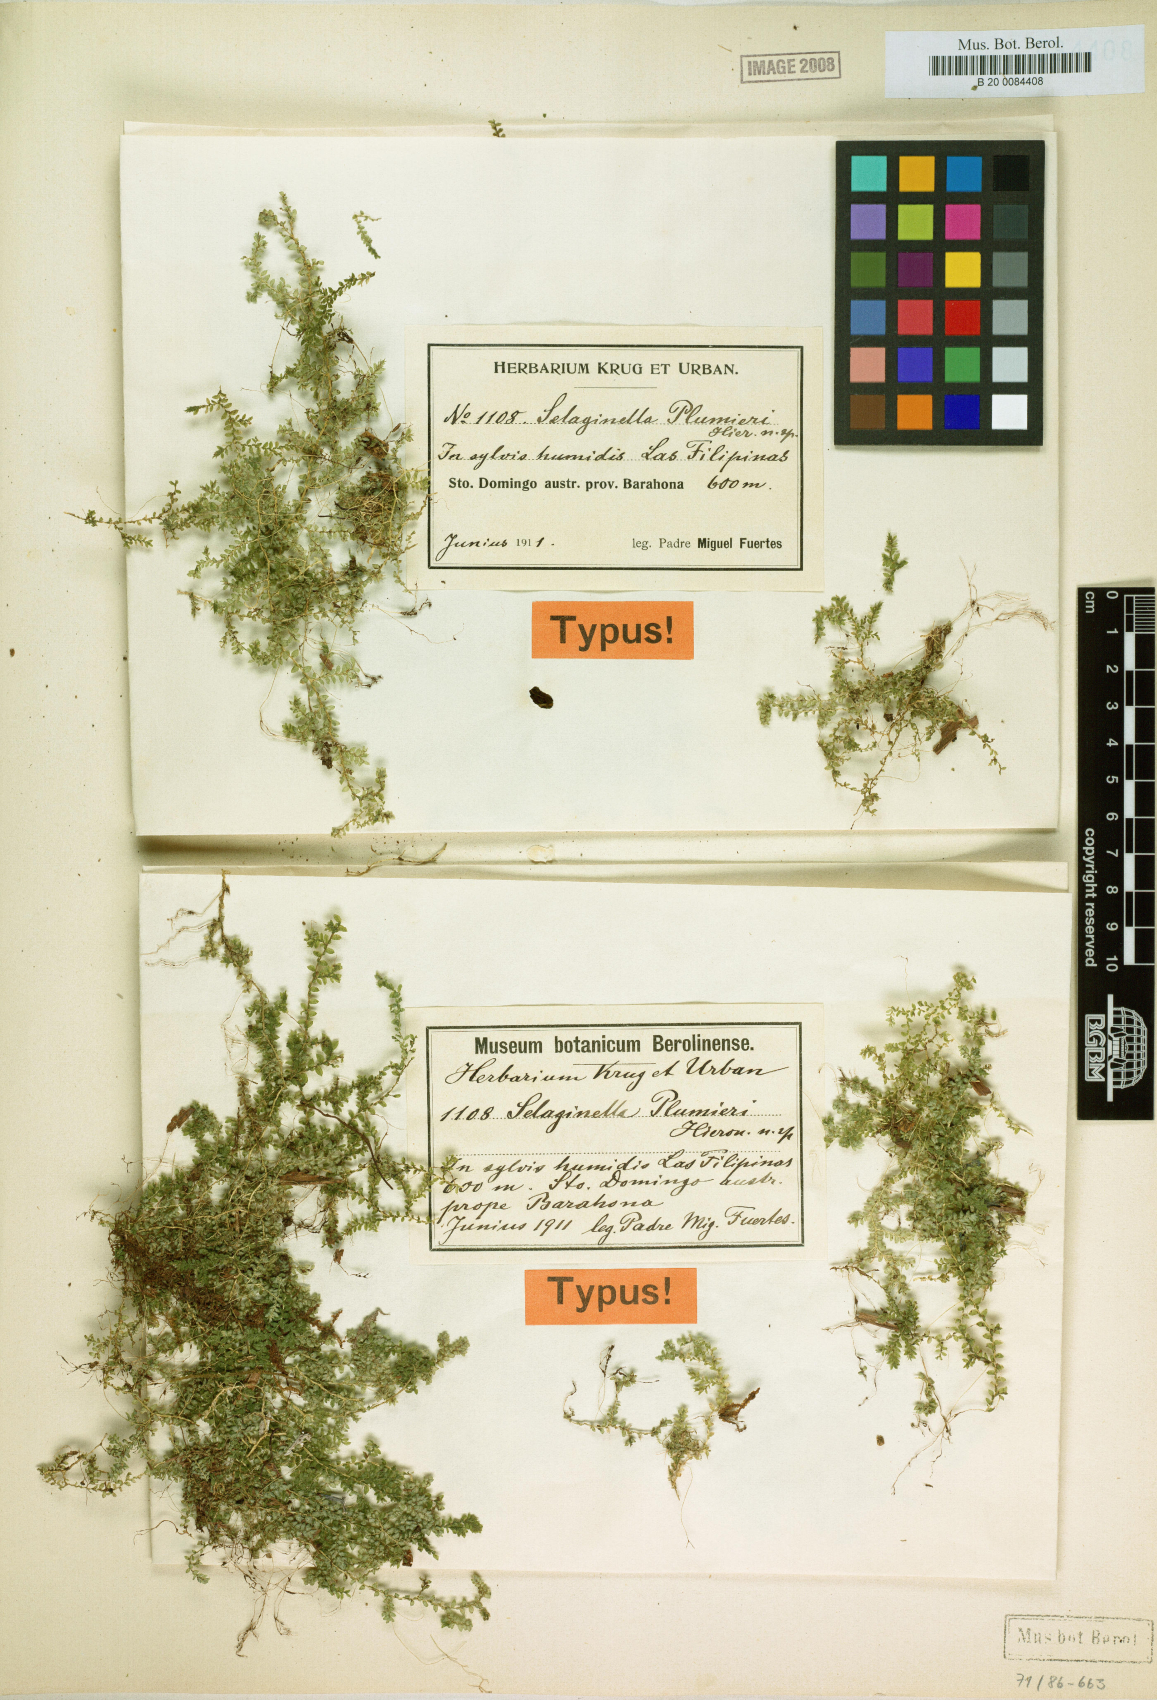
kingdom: Plantae
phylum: Tracheophyta
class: Lycopodiopsida
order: Selaginellales
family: Selaginellaceae
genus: Selaginella
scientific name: Selaginella plumieri
